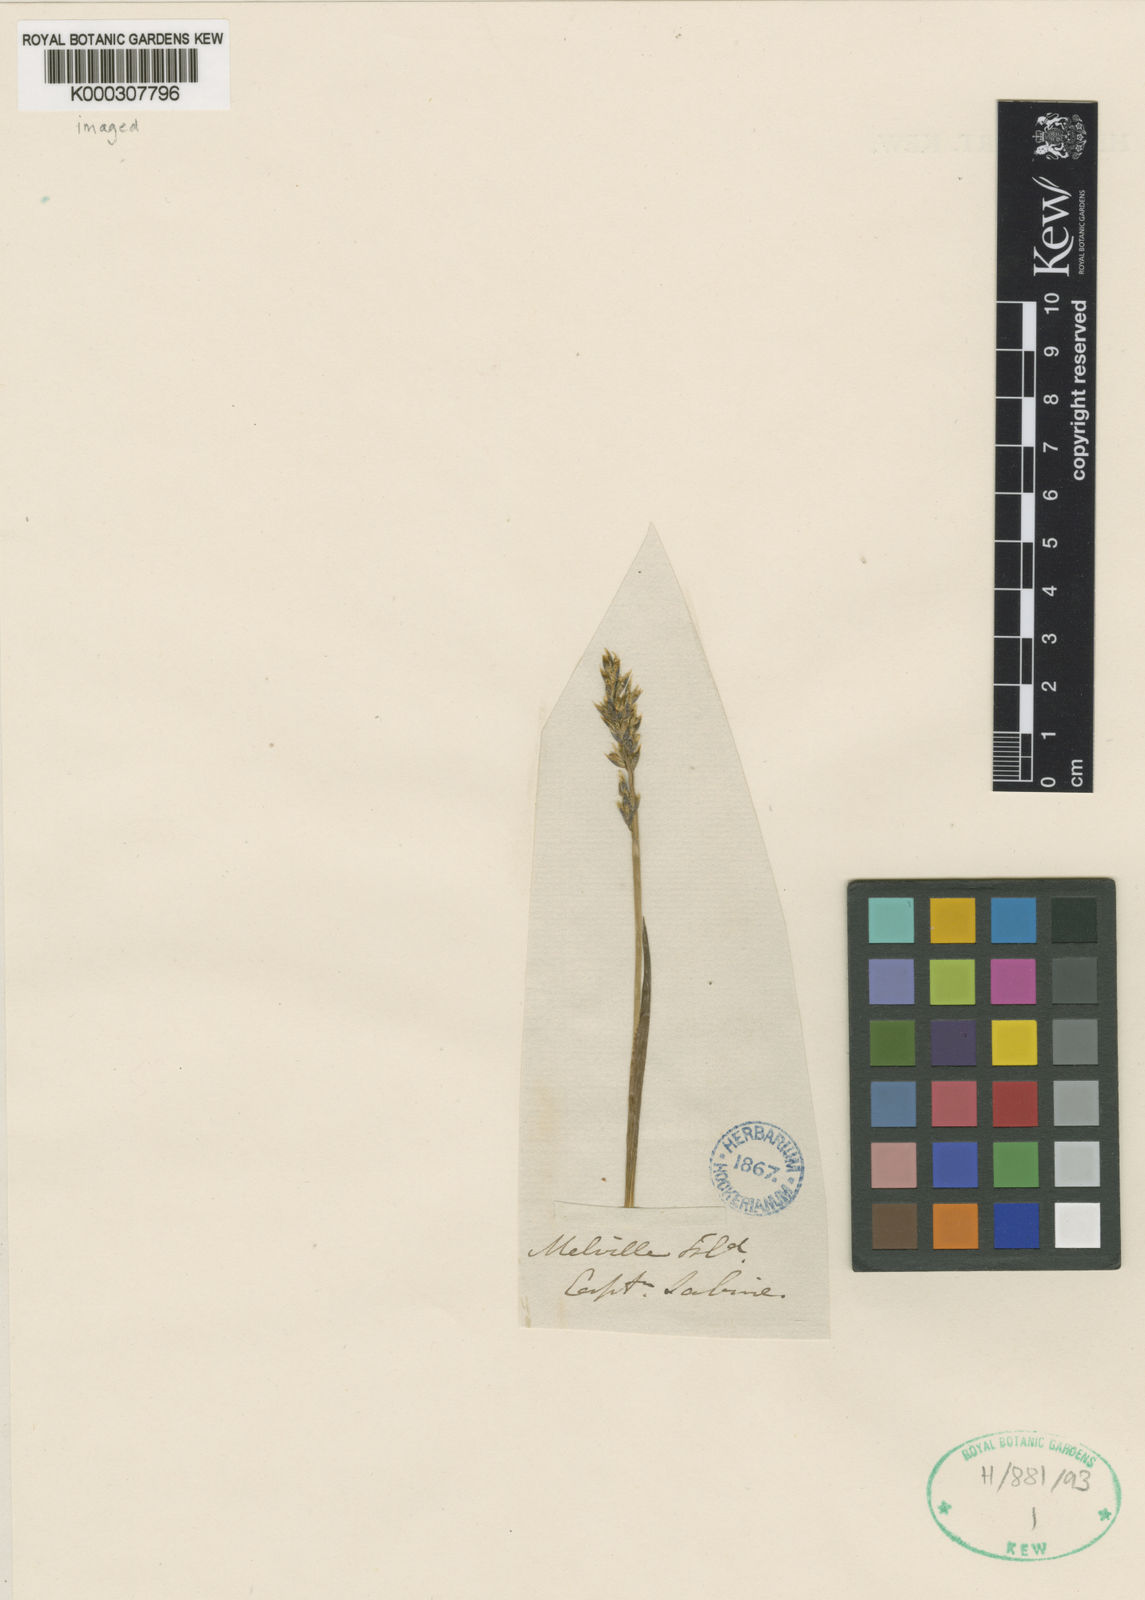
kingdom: Plantae
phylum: Tracheophyta
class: Liliopsida
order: Poales
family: Poaceae
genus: Dupontia
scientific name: Dupontia fisheri
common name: Tundra grass
